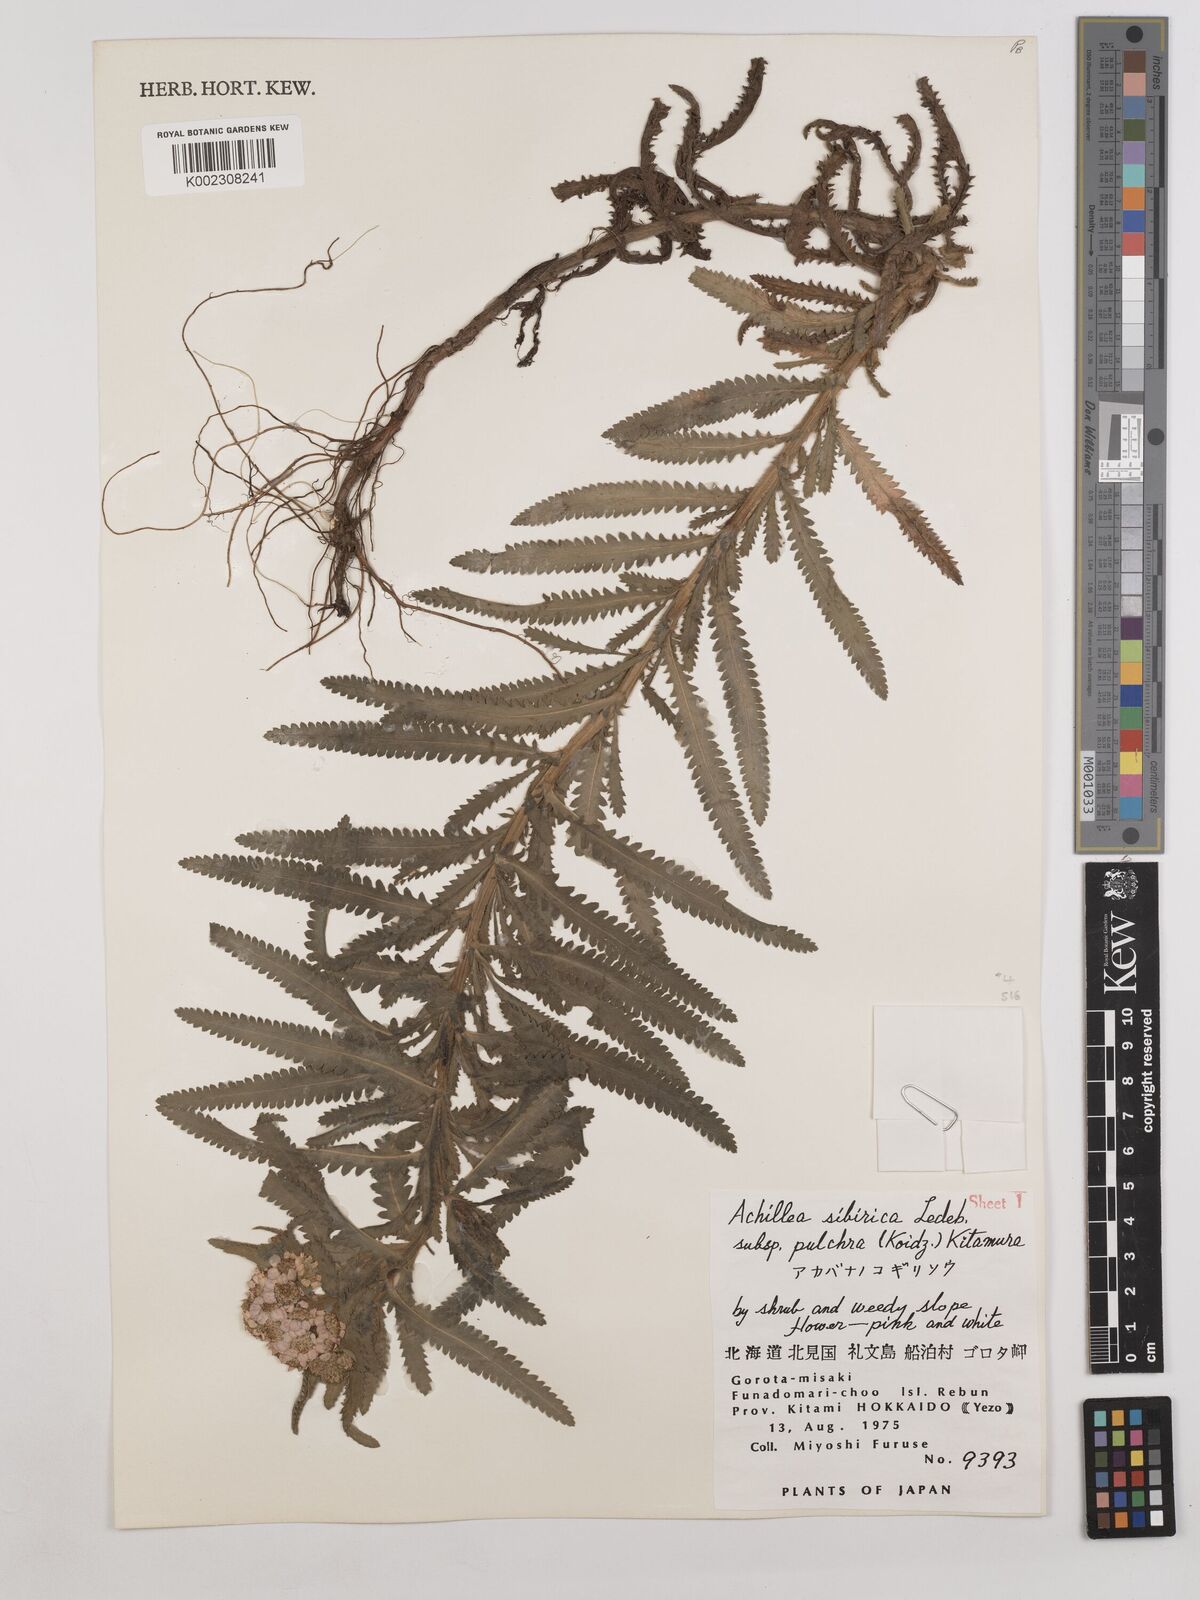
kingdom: Plantae
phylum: Tracheophyta
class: Magnoliopsida
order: Asterales
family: Asteraceae
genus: Achillea
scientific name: Achillea alpina
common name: Siberian yarrow
